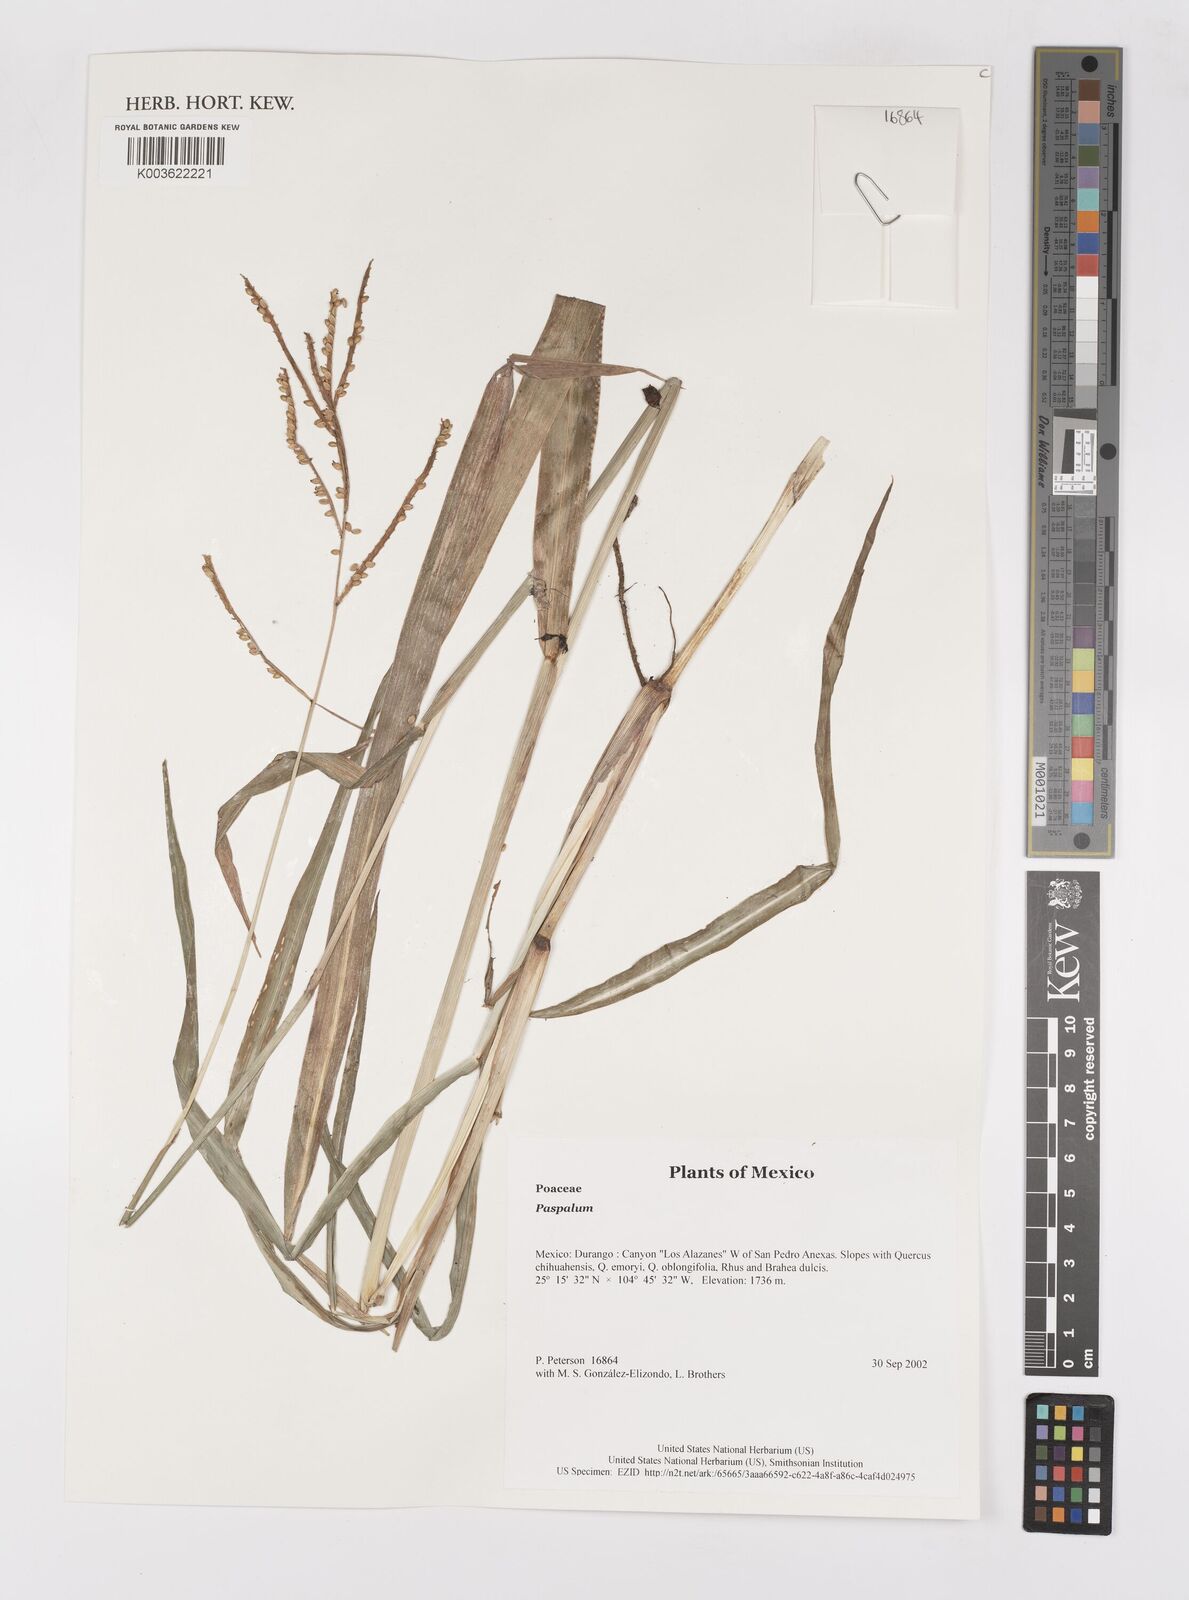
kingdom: Plantae
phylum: Tracheophyta
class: Liliopsida
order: Poales
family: Poaceae
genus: Paspalum
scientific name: Paspalum
